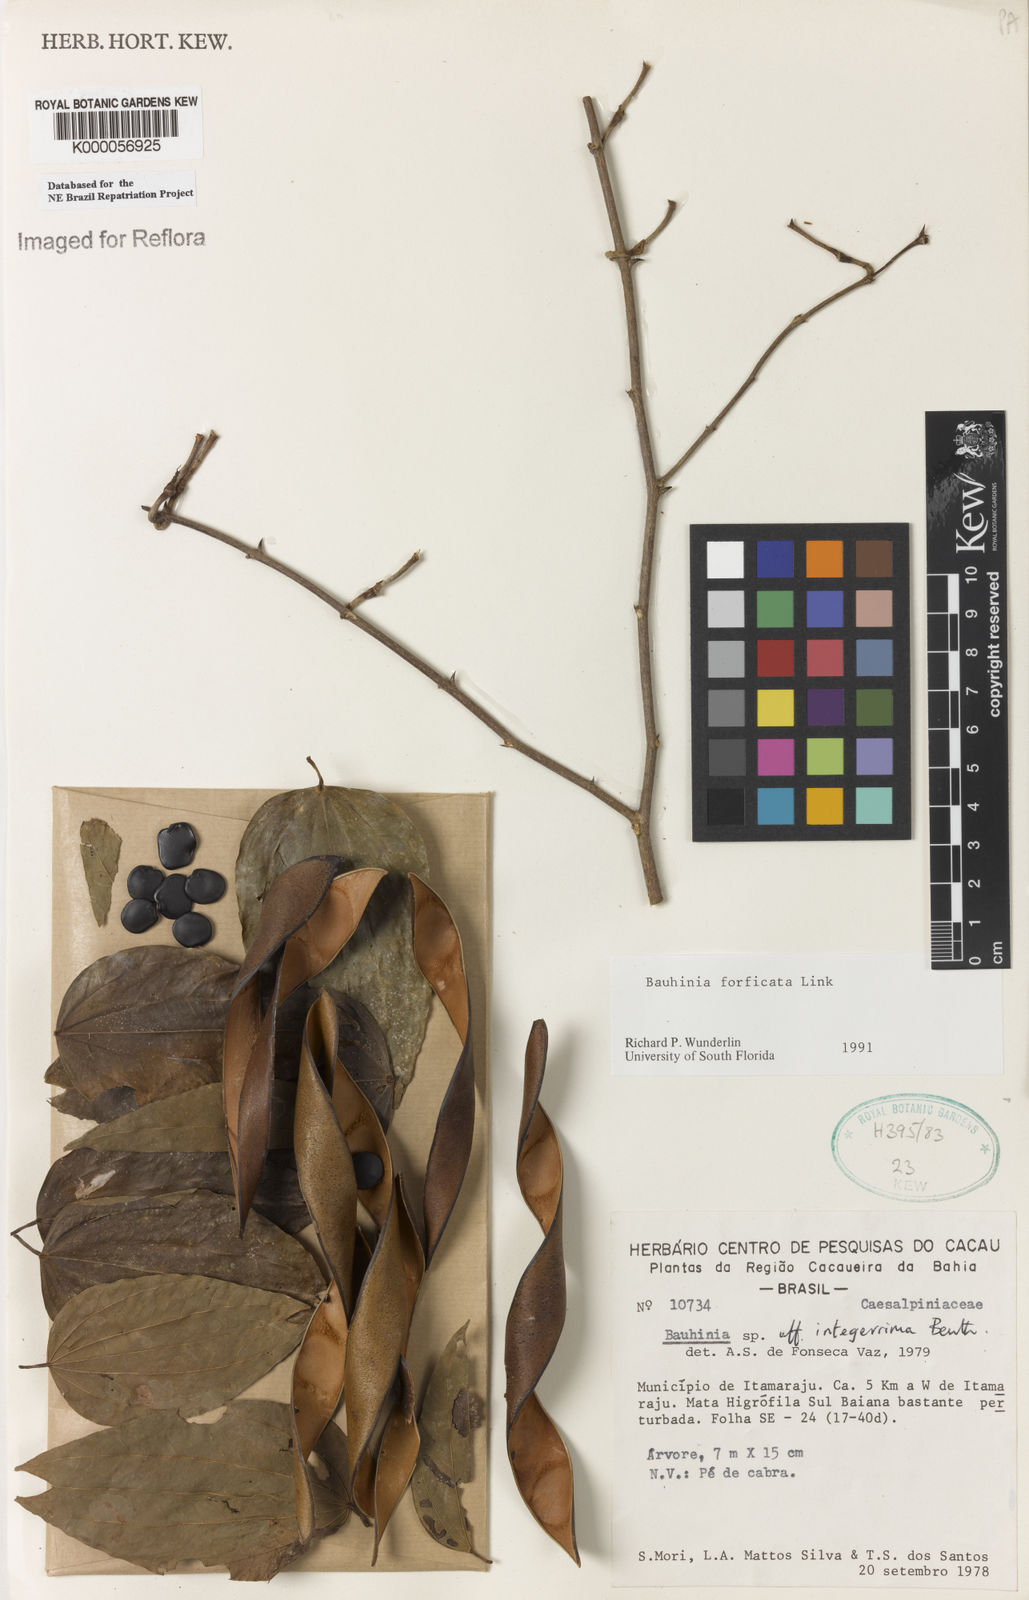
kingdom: Plantae
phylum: Tracheophyta
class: Magnoliopsida
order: Fabales
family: Fabaceae
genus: Bauhinia
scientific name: Bauhinia forficata
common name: Orchid tree
